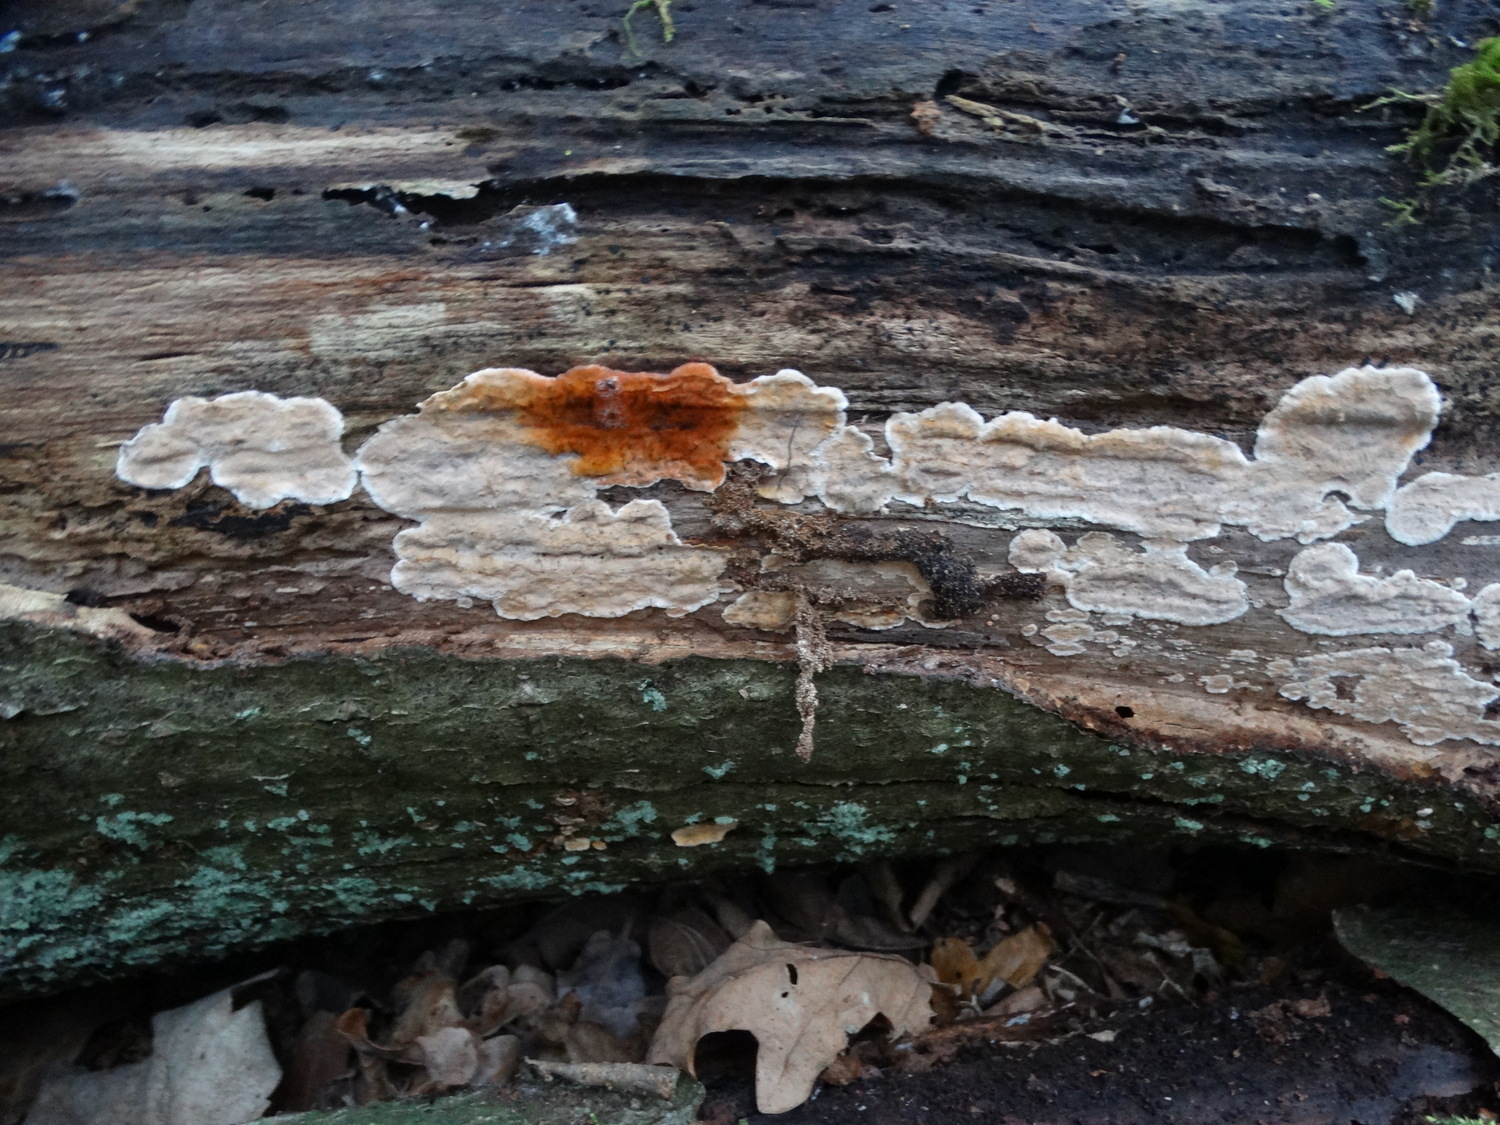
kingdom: Fungi
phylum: Basidiomycota
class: Agaricomycetes
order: Russulales
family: Stereaceae
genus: Stereum
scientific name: Stereum rugosum
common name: rynket lædersvamp
